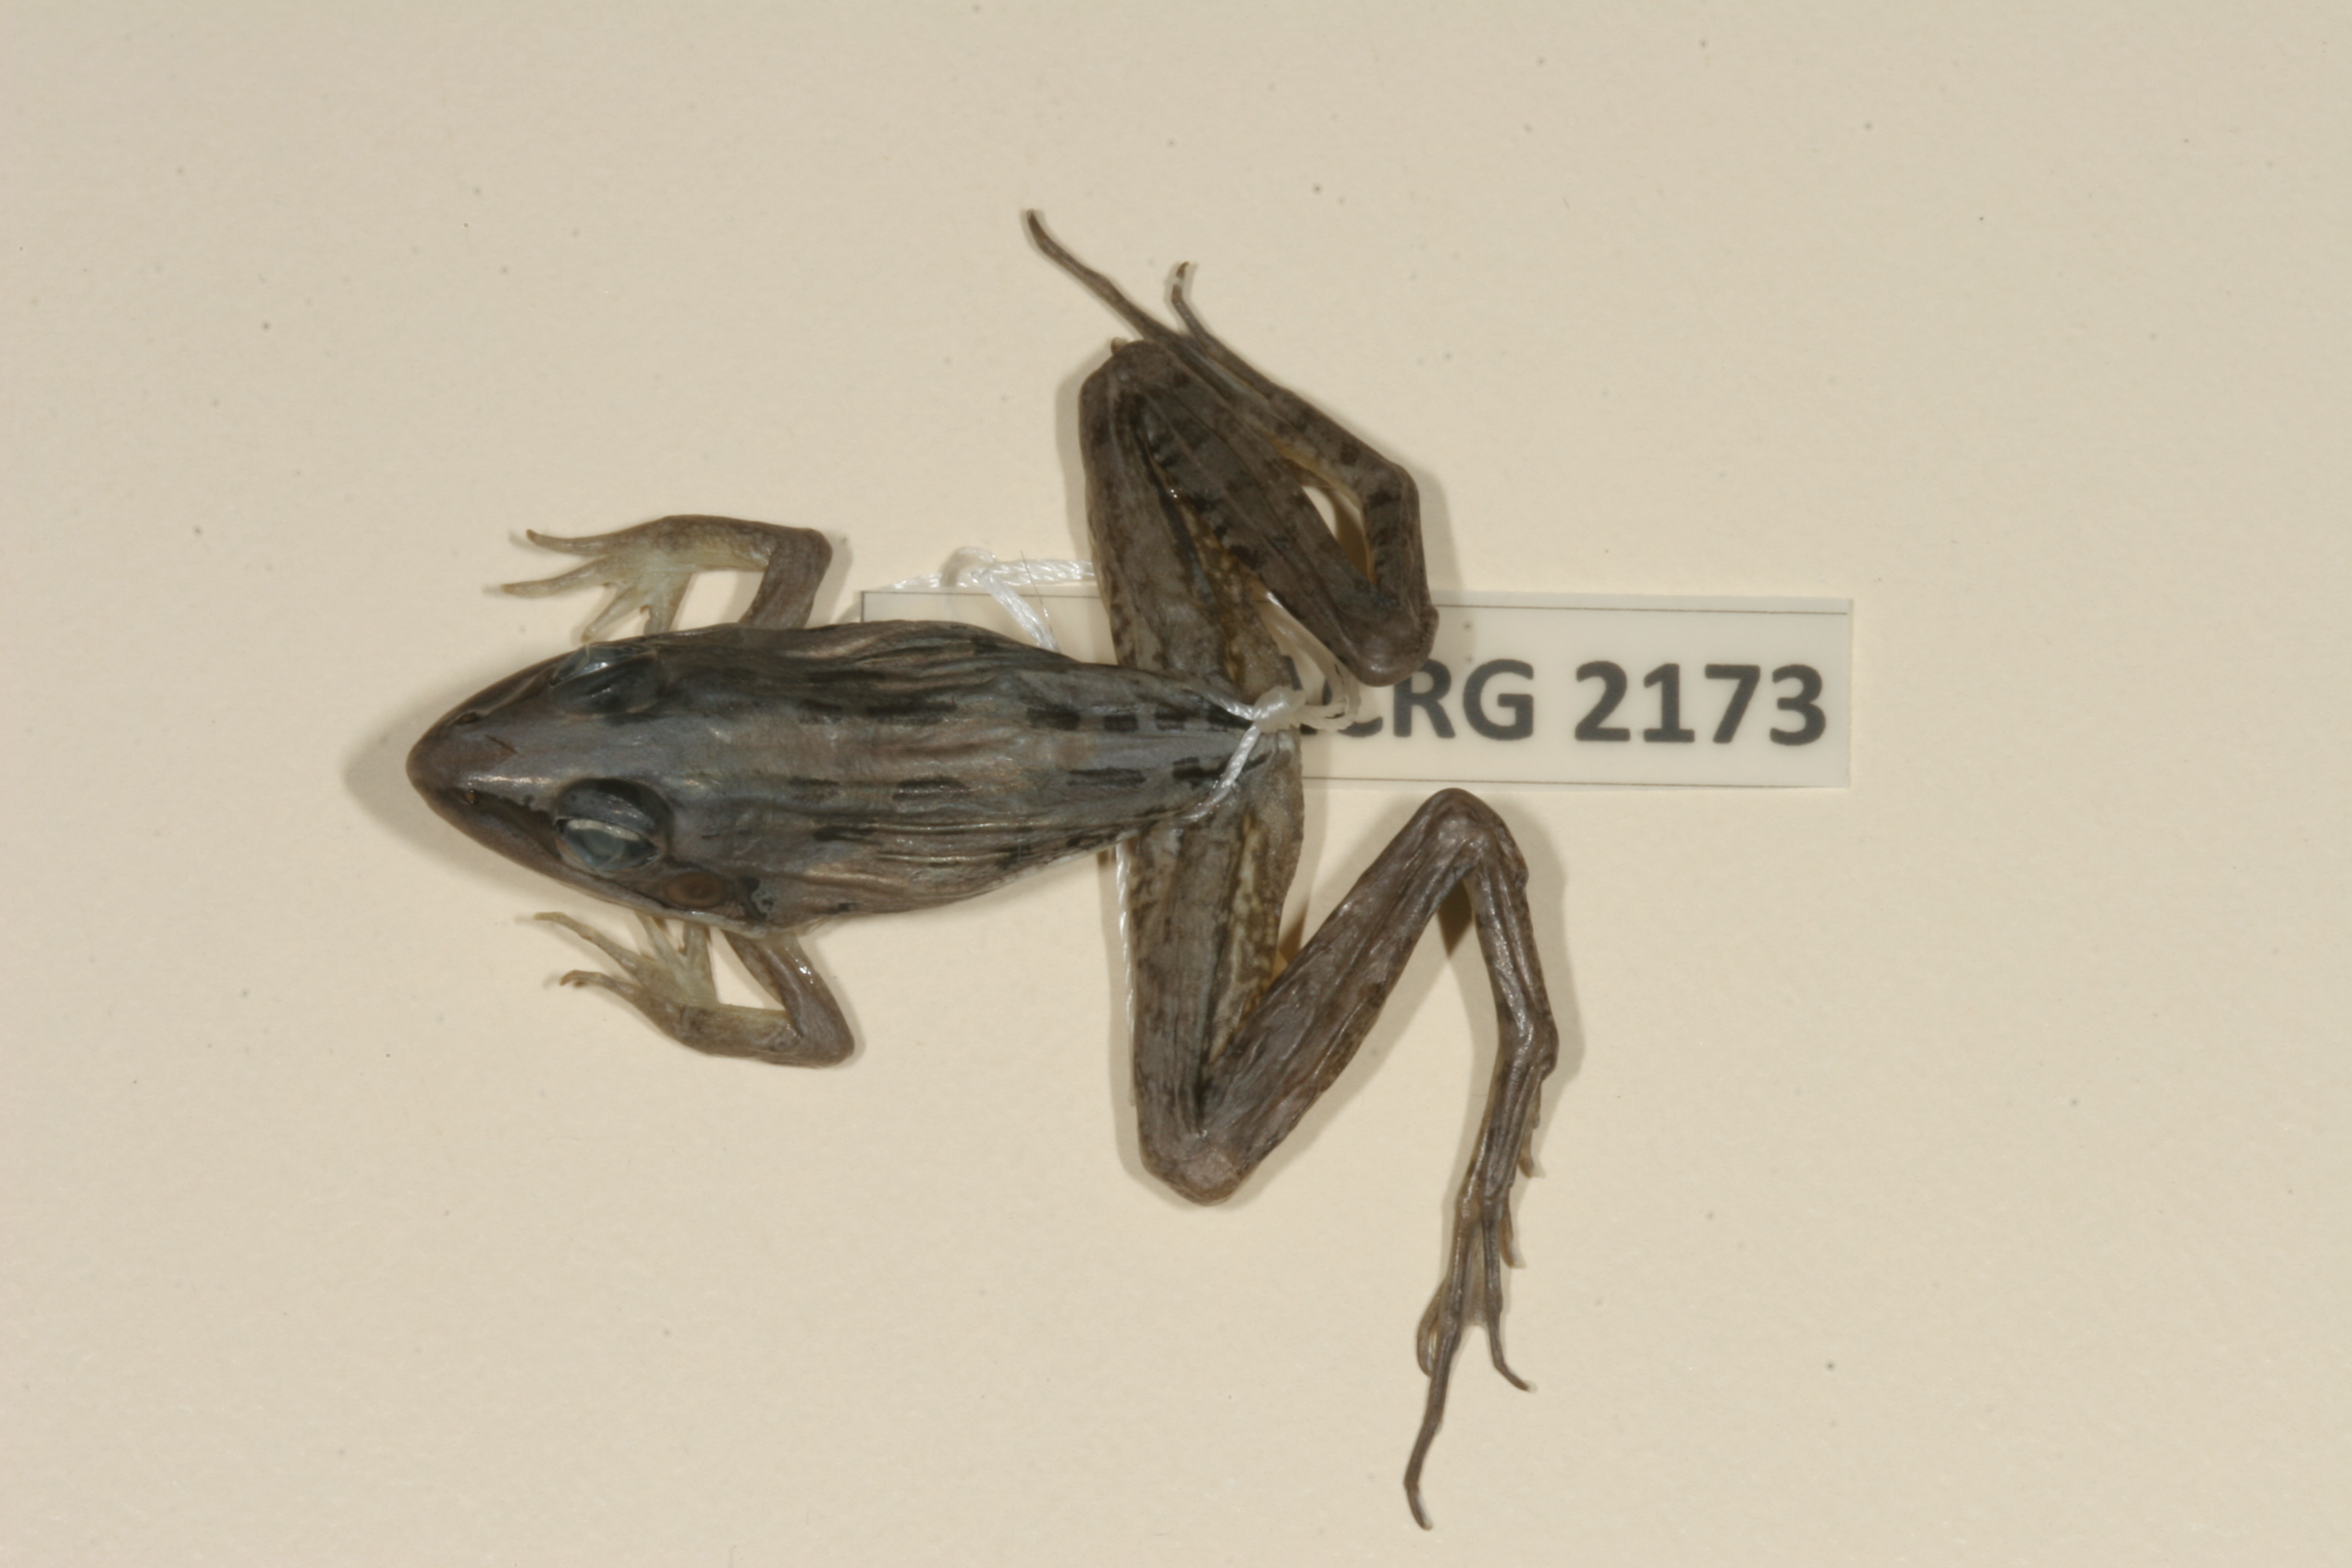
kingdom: Animalia
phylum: Chordata
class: Amphibia
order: Anura
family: Ptychadenidae
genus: Ptychadena
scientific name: Ptychadena mascareniensis
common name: Mascarene grass frog
